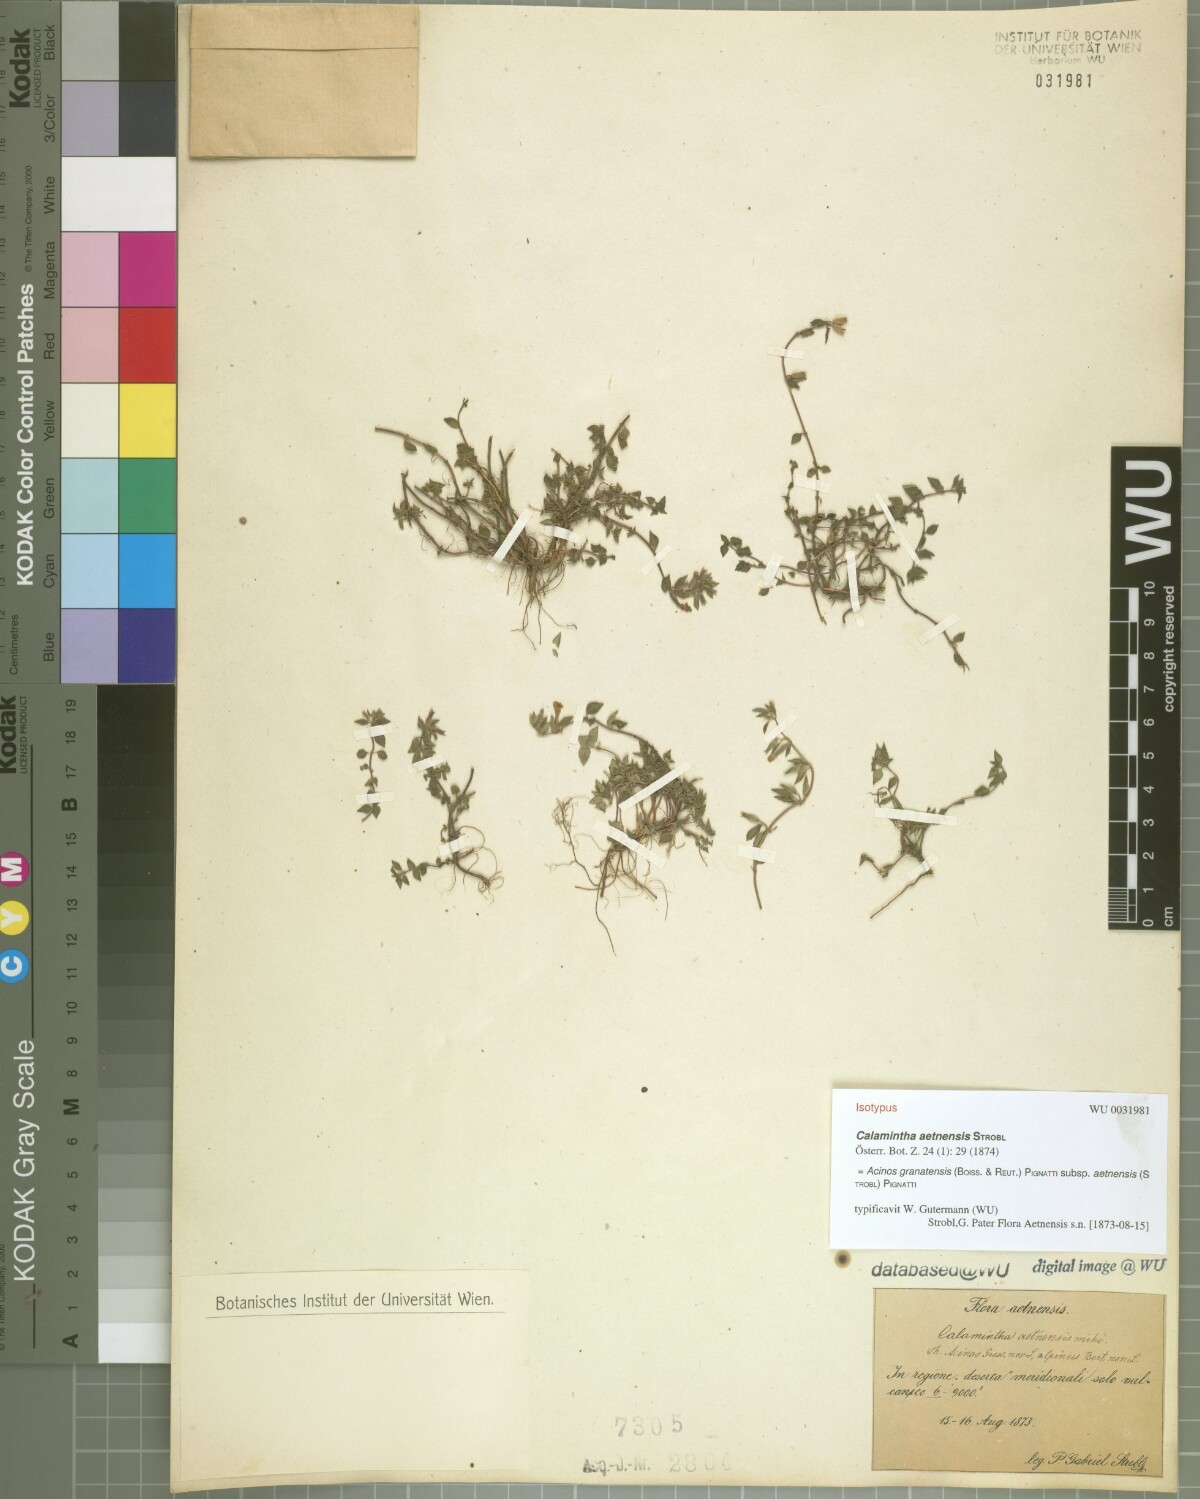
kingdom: Plantae
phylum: Tracheophyta
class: Magnoliopsida
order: Lamiales
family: Lamiaceae
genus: Clinopodium
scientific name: Clinopodium alpinum
